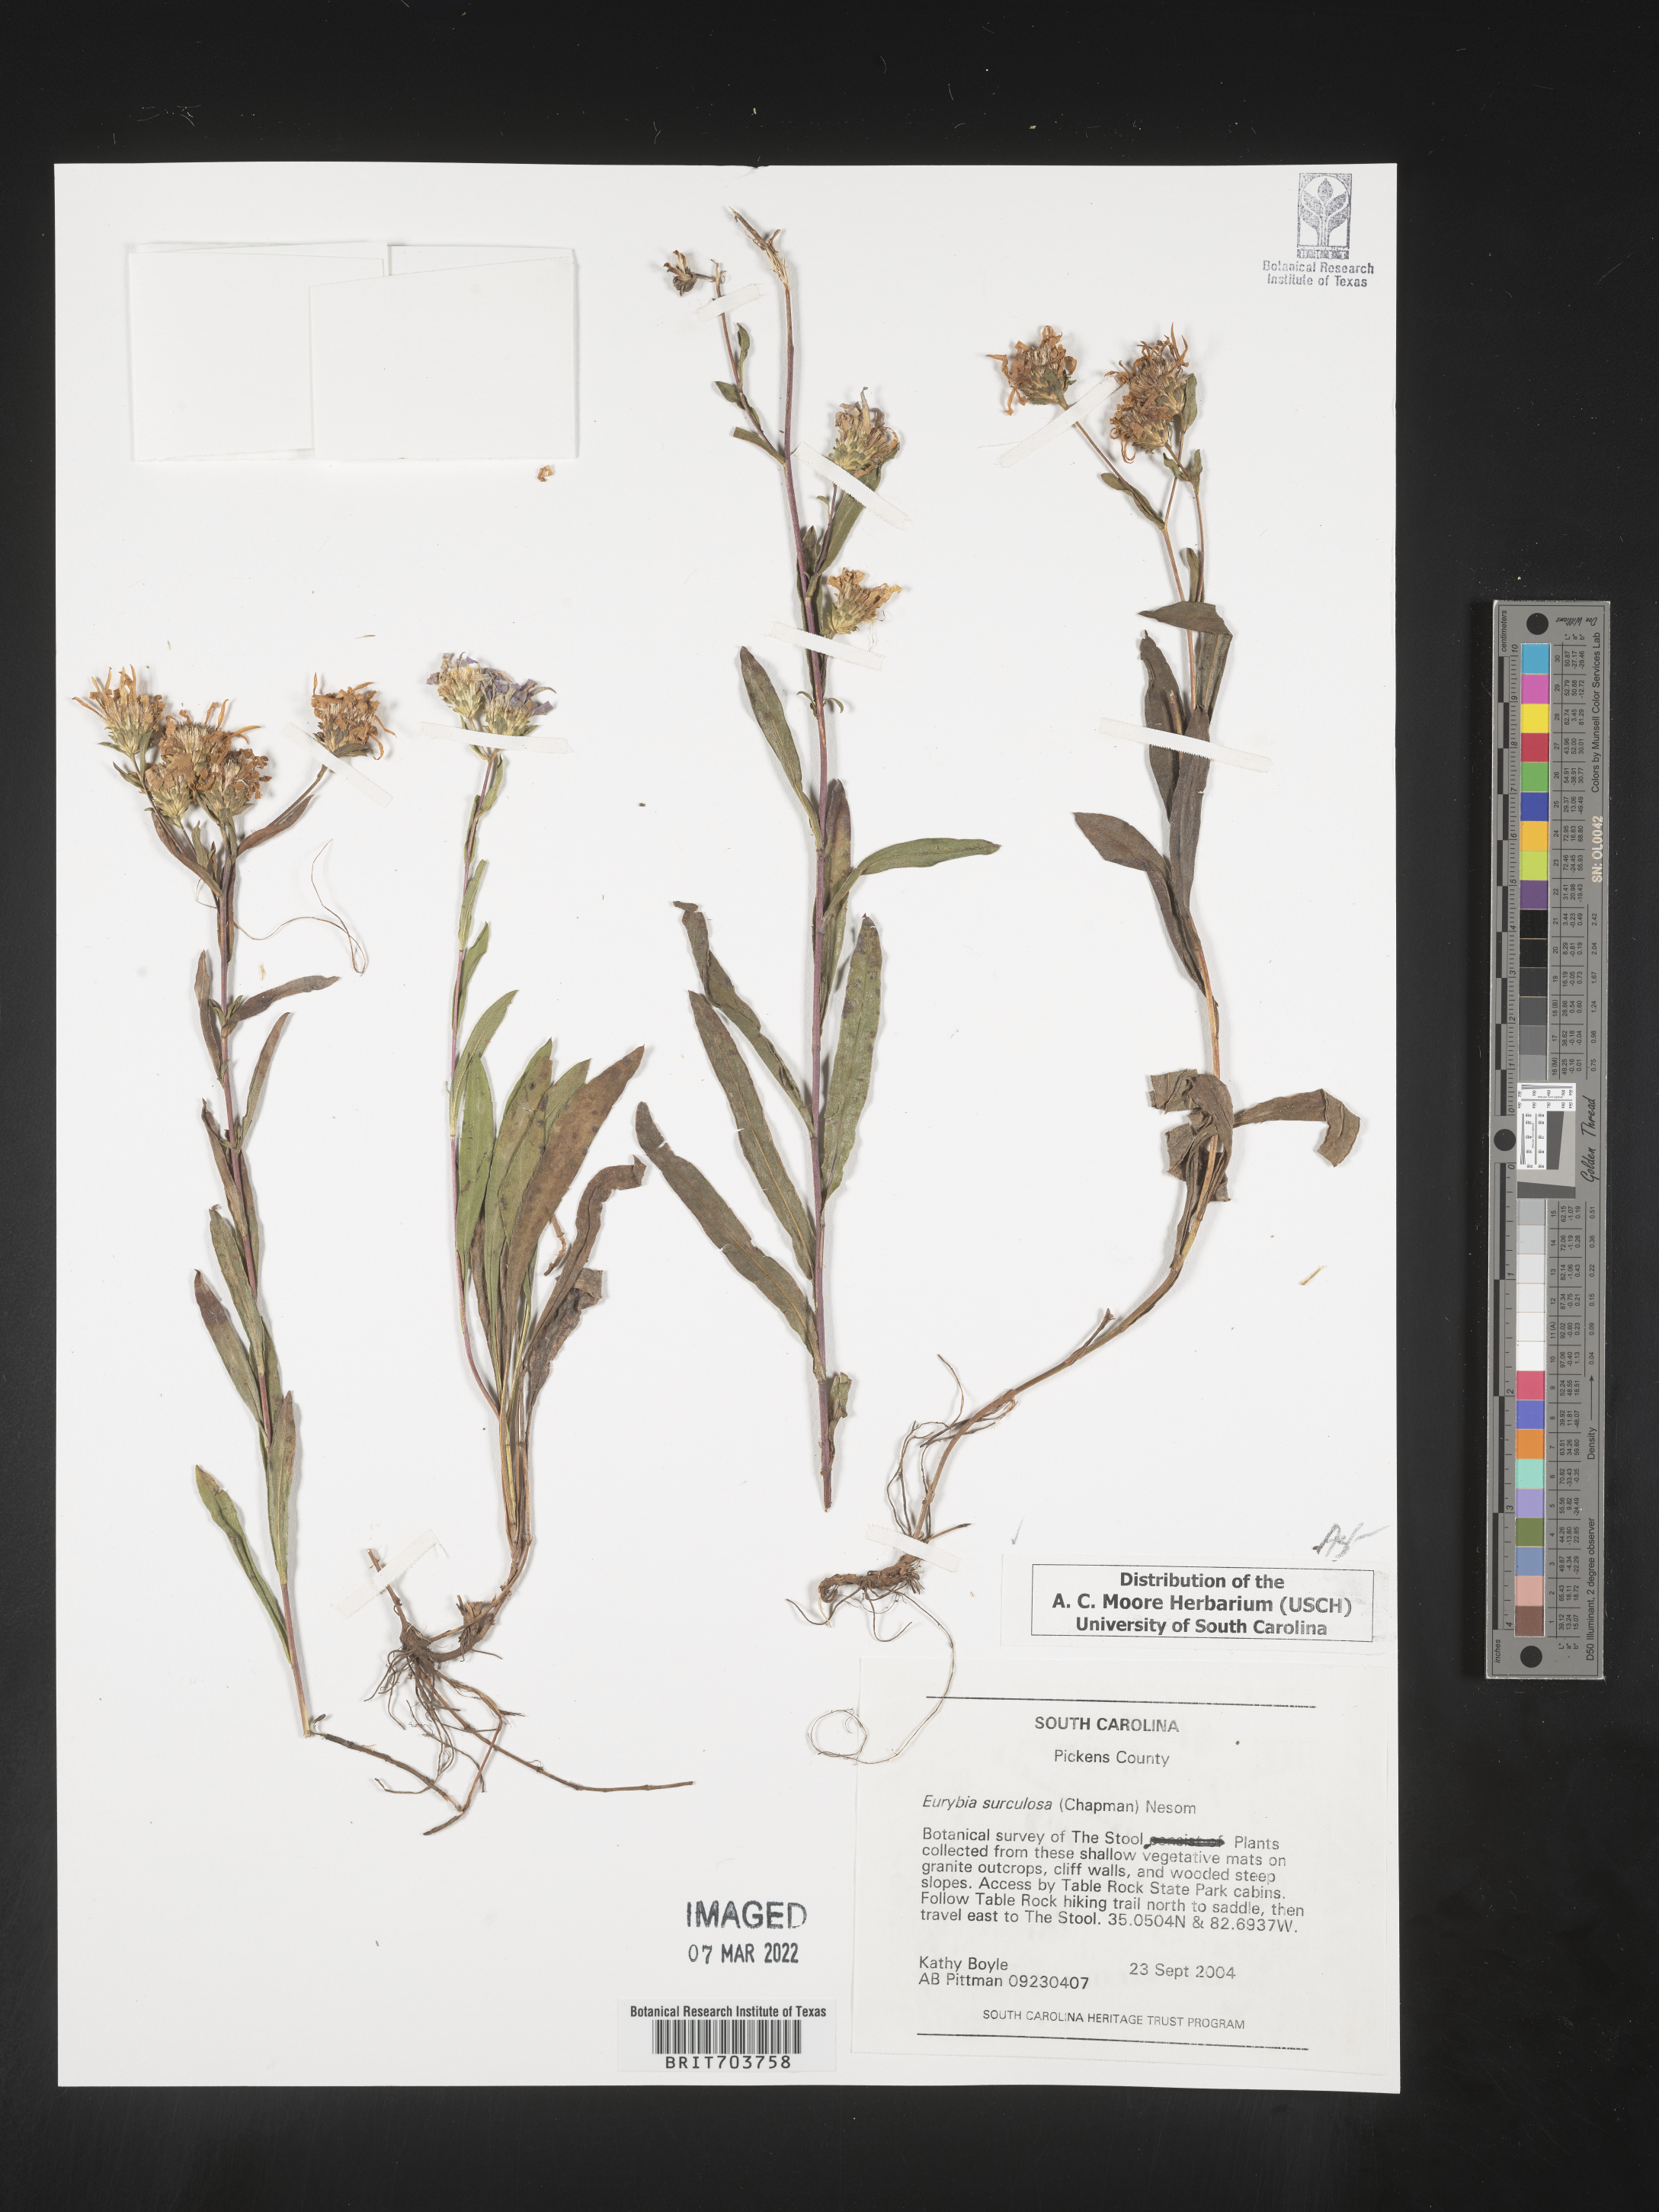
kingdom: Plantae
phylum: Tracheophyta
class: Magnoliopsida
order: Asterales
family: Asteraceae
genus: Eurybia
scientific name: Eurybia surculosa
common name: Creeping aster
